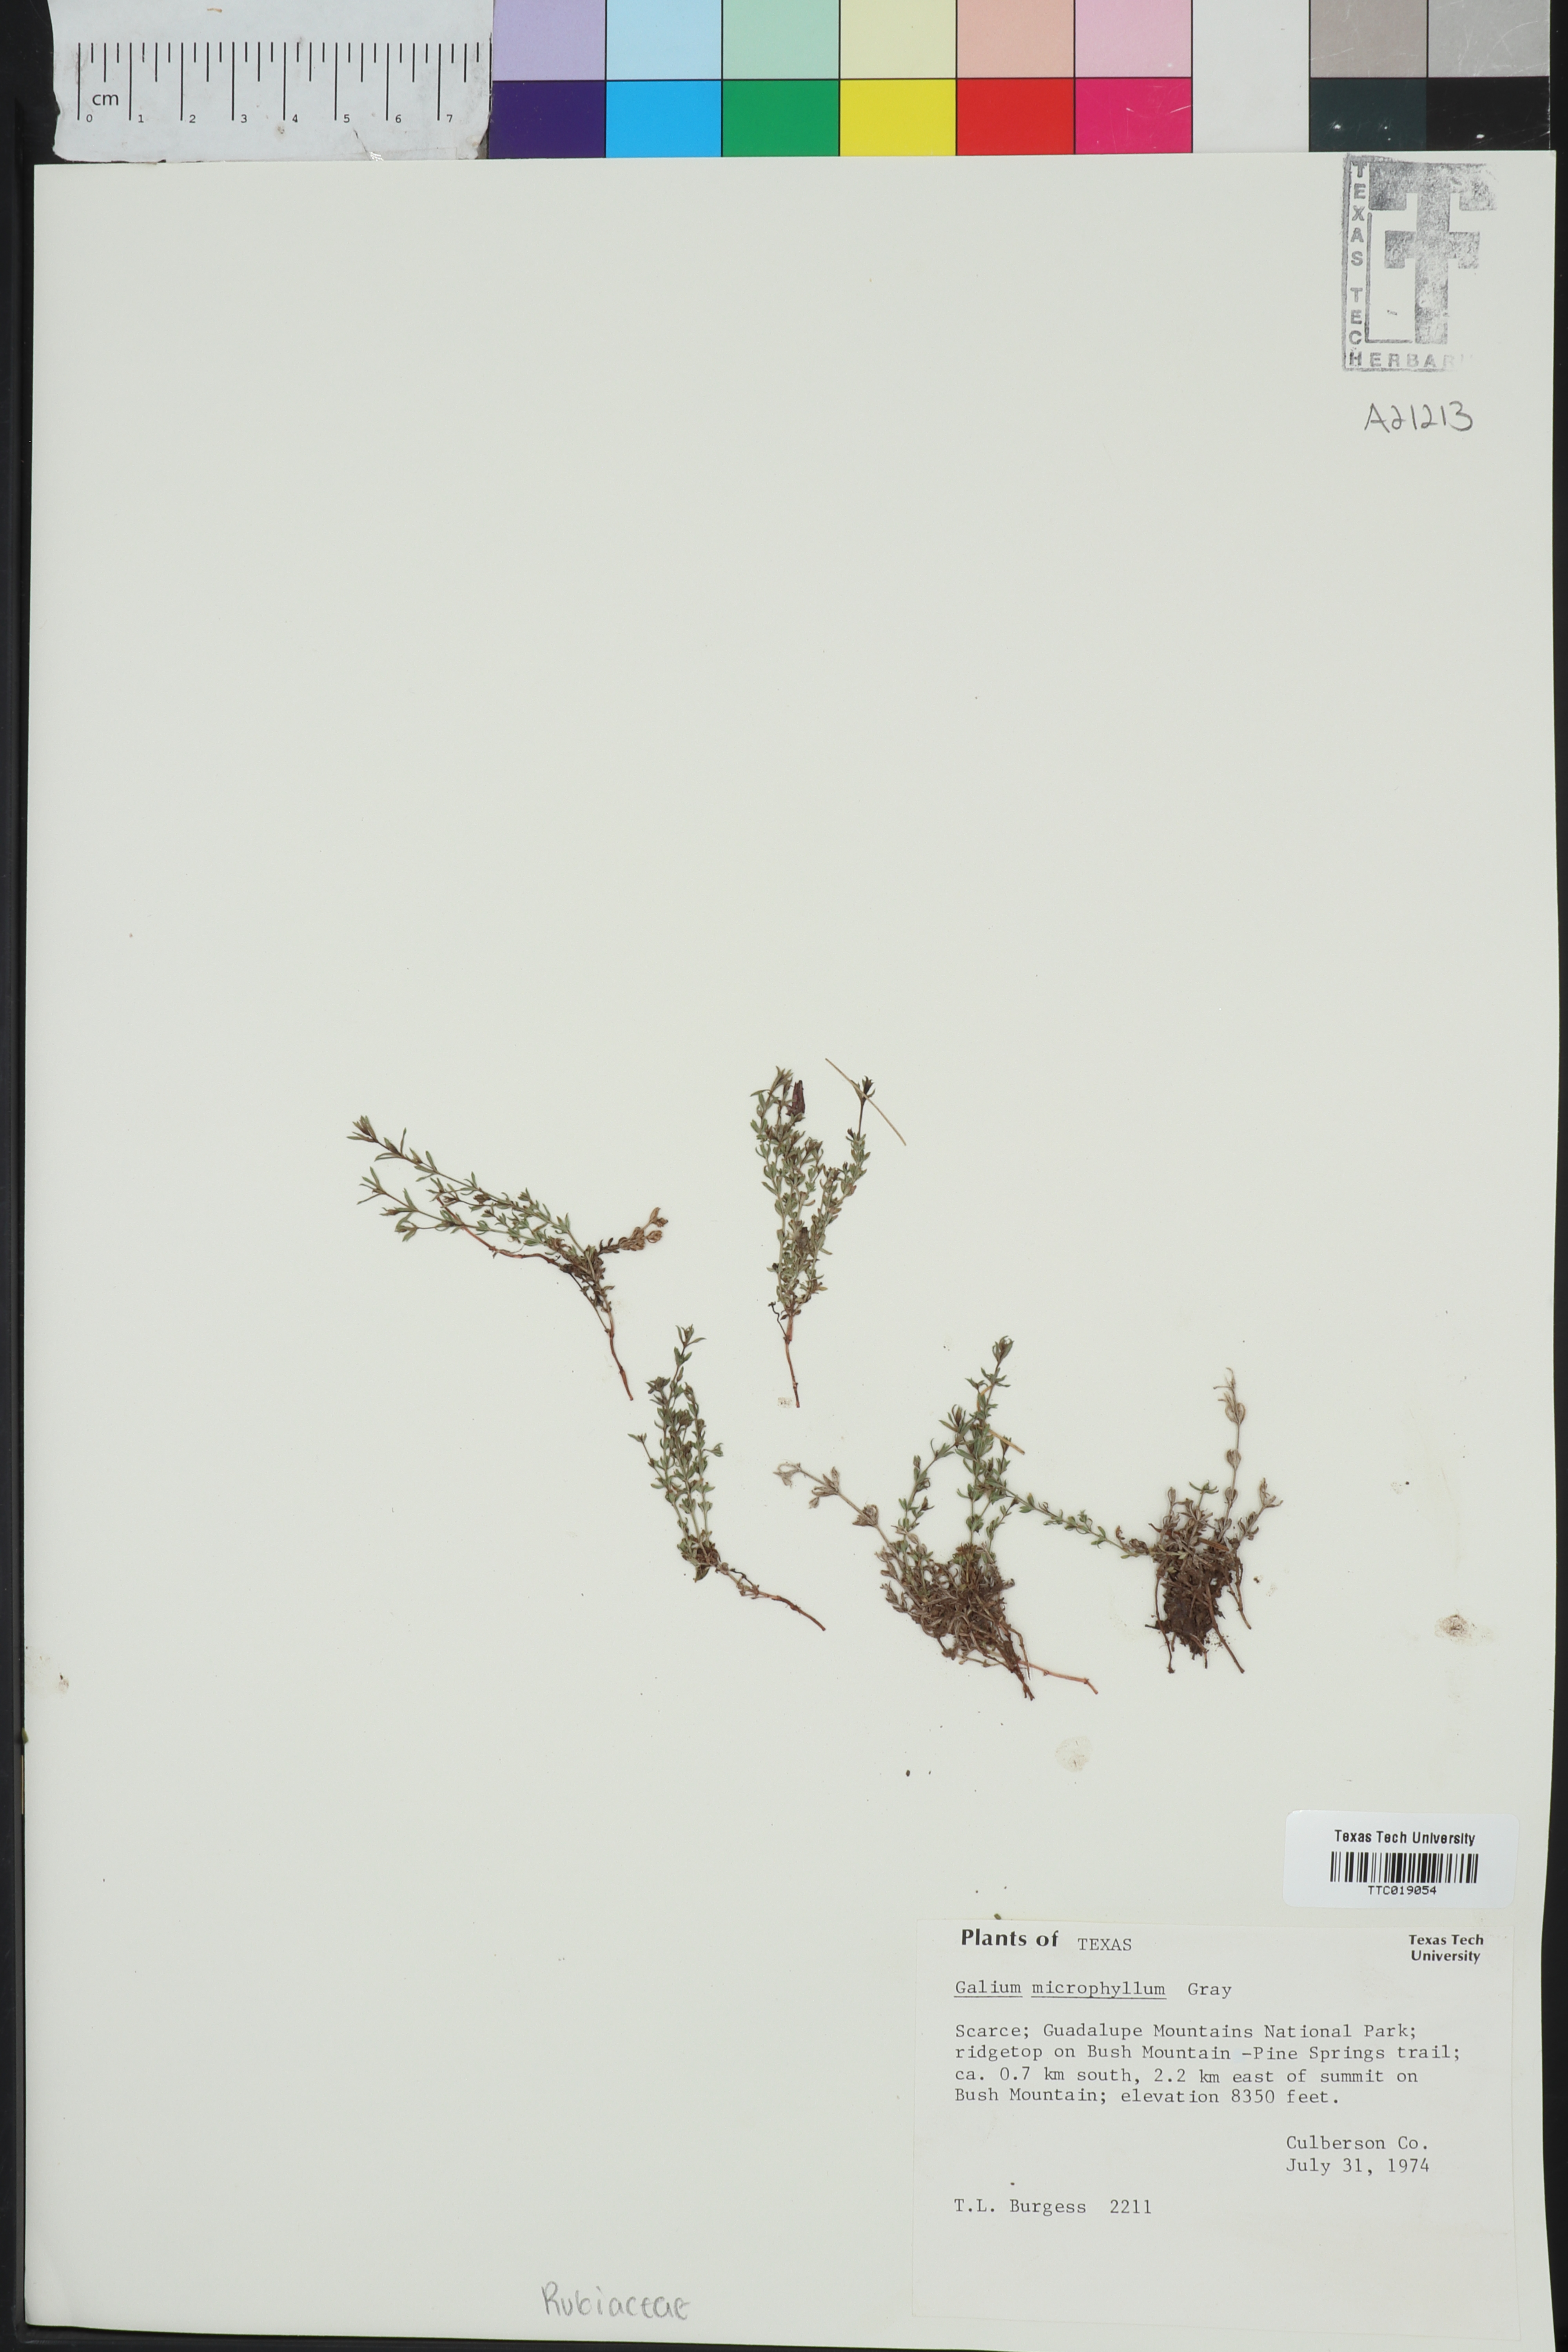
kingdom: Plantae
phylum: Tracheophyta
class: Magnoliopsida
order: Gentianales
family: Rubiaceae
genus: Galium
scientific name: Galium microphyllum
